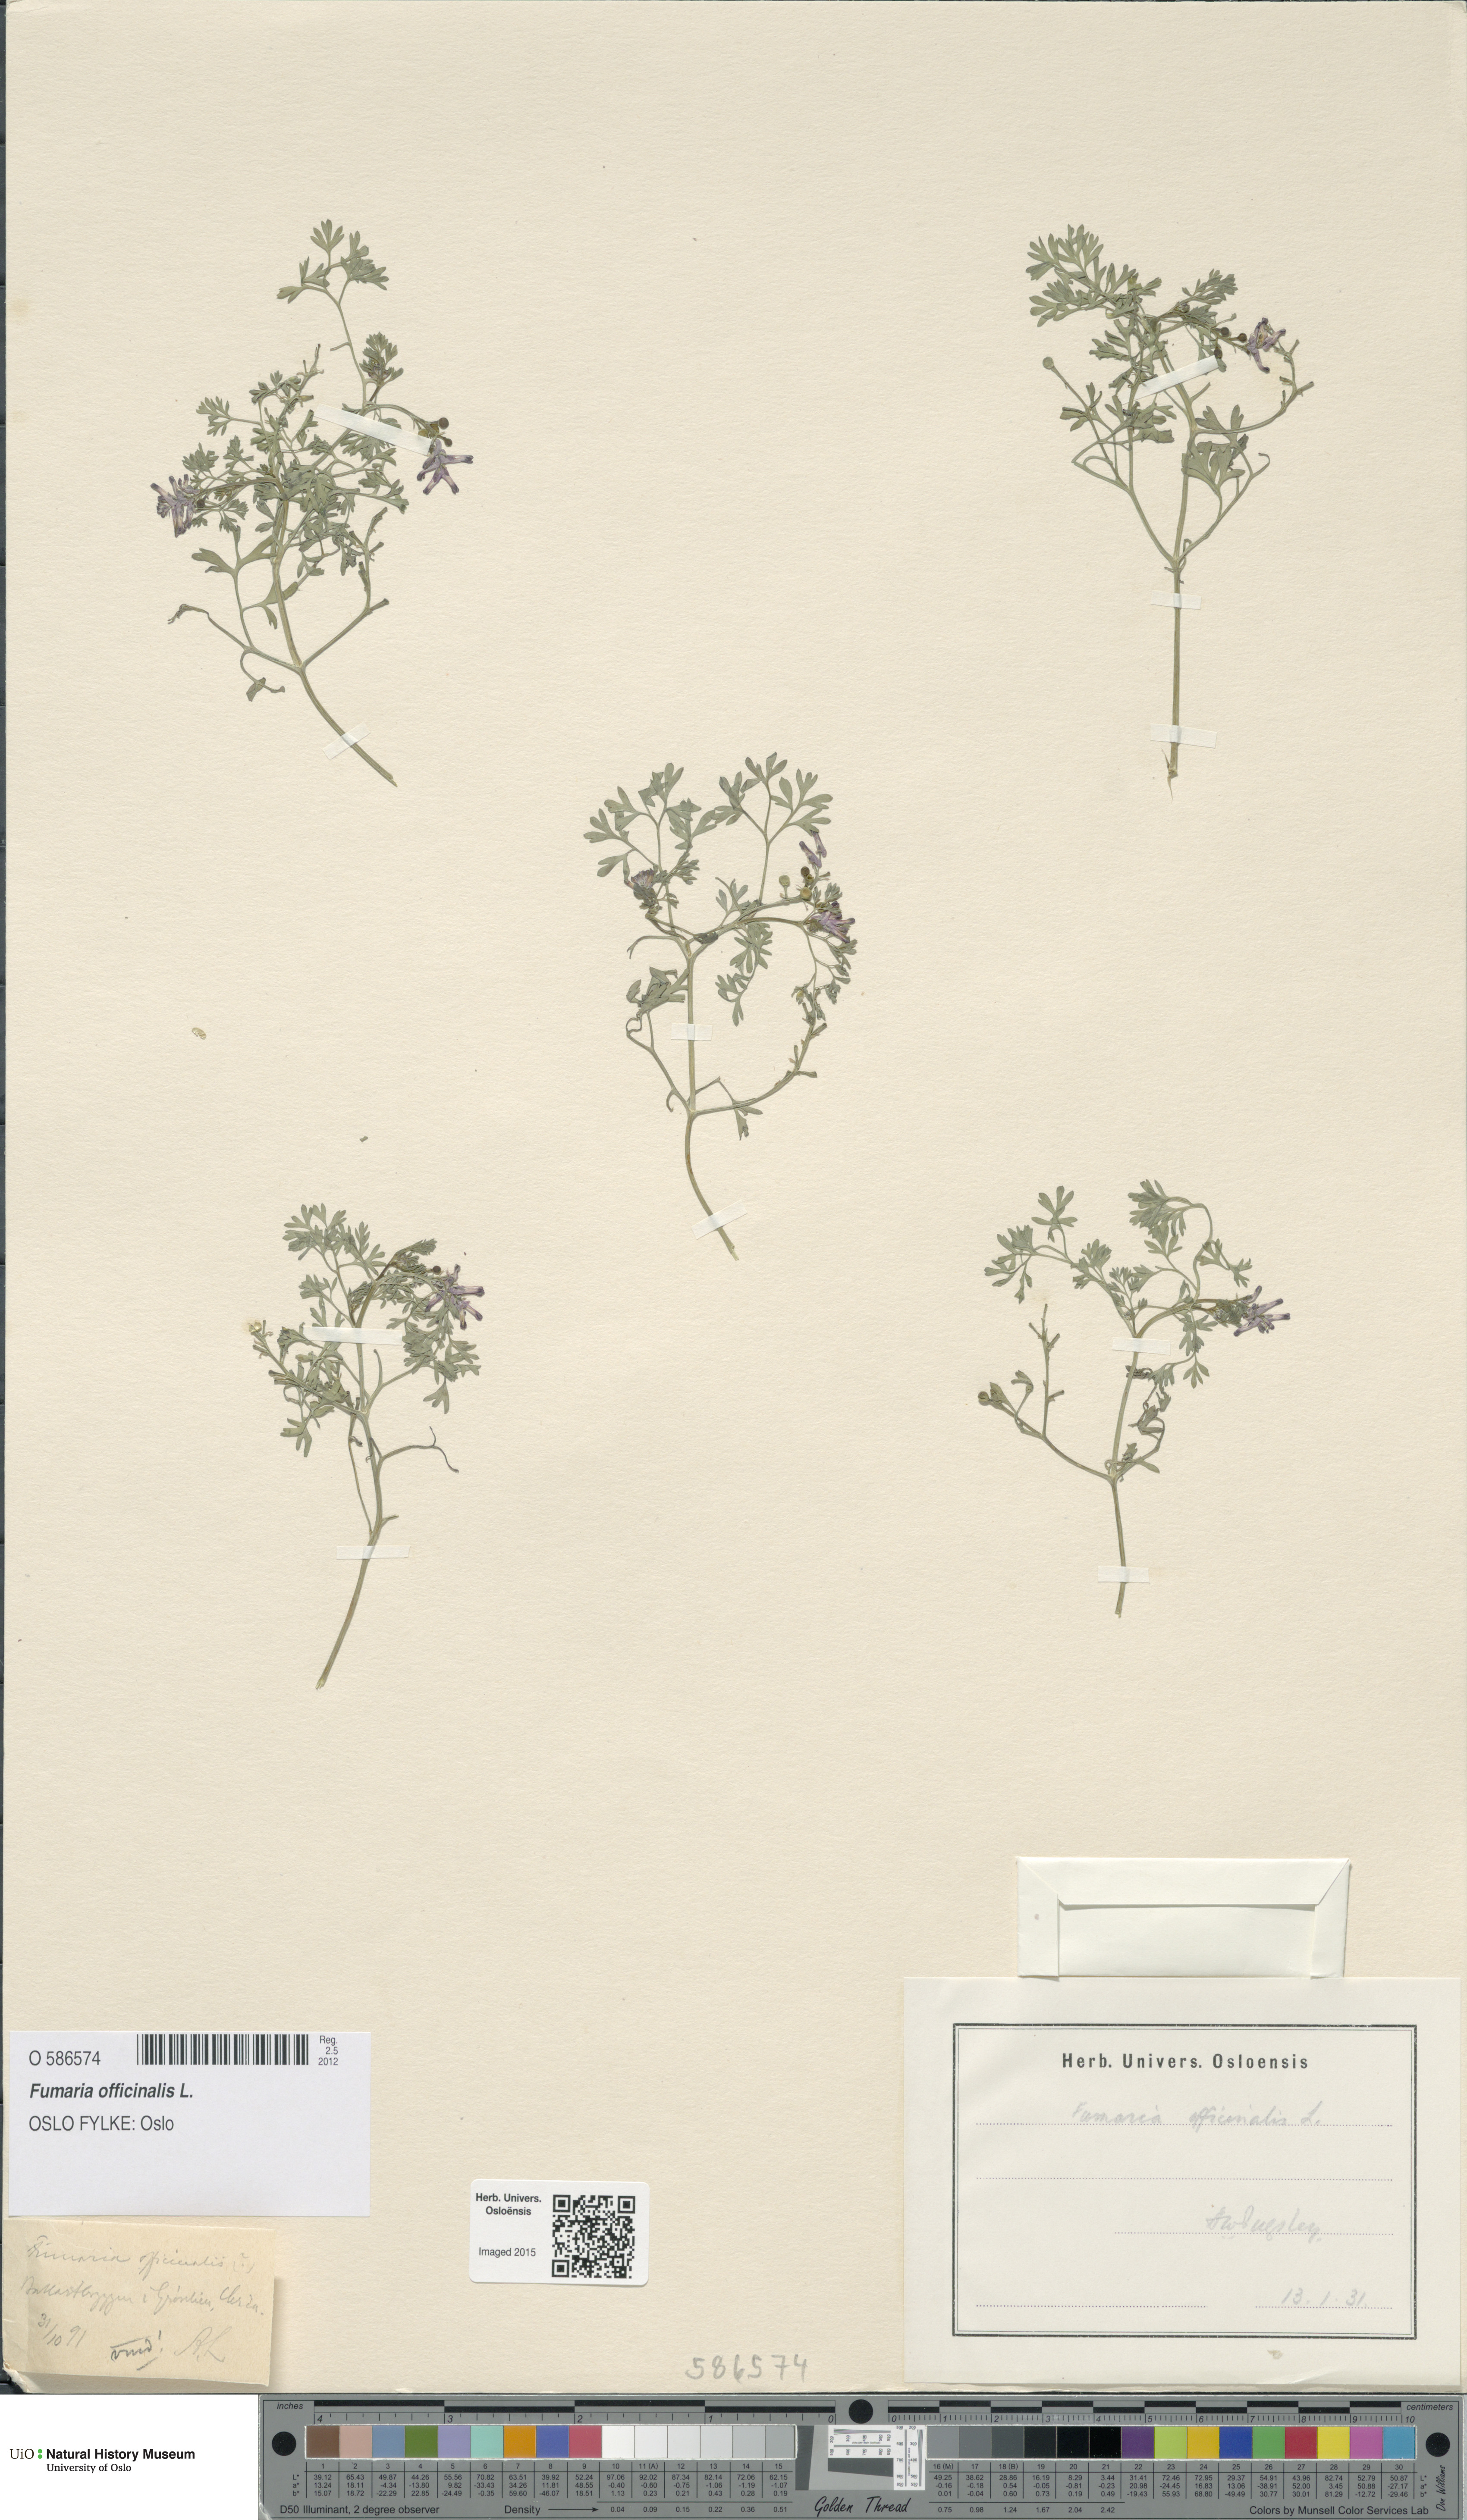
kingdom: Plantae
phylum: Tracheophyta
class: Magnoliopsida
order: Ranunculales
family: Papaveraceae
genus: Fumaria
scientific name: Fumaria officinalis
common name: Common fumitory
